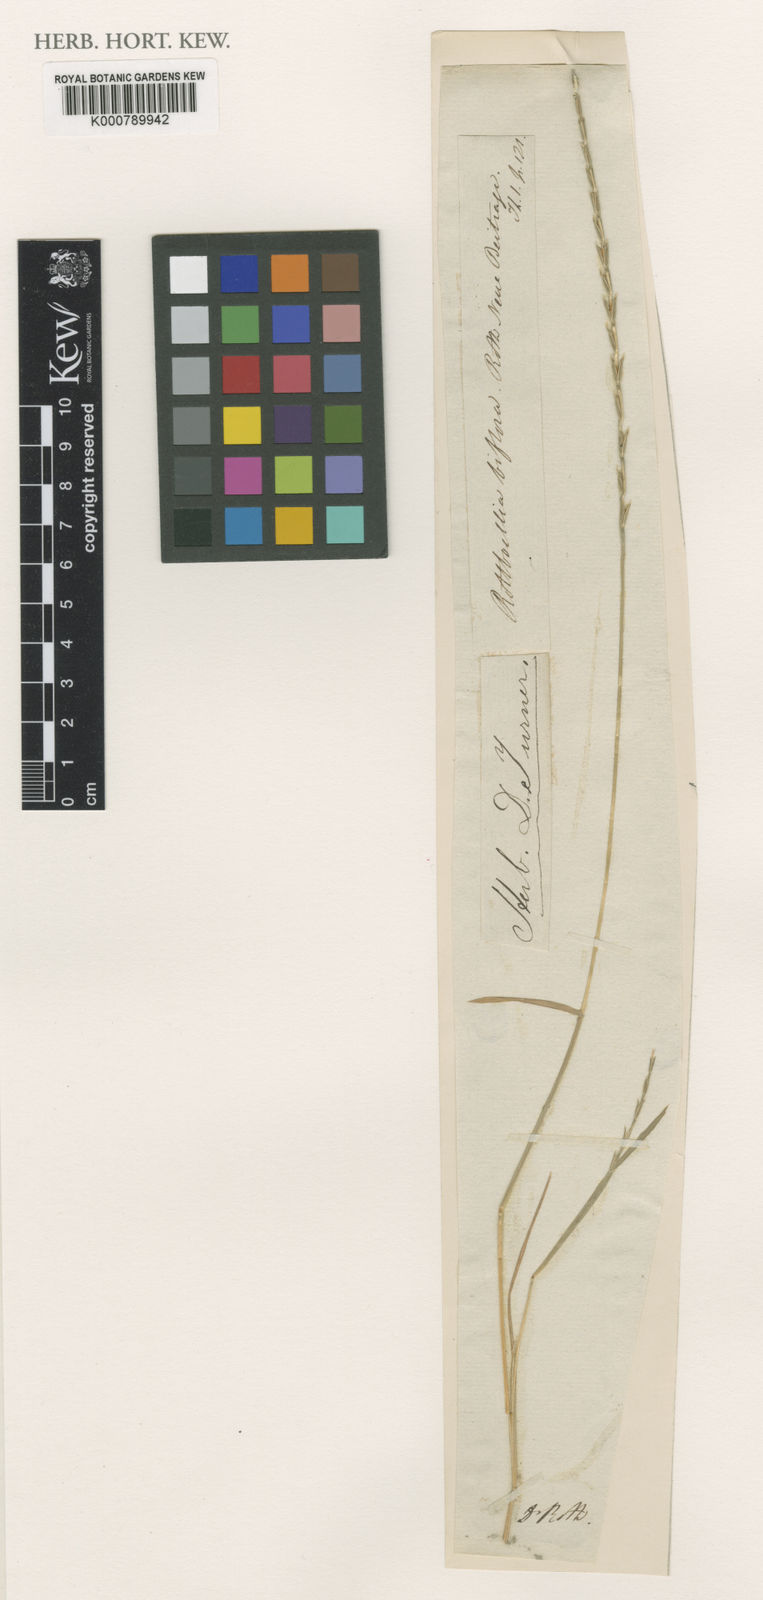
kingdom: Plantae
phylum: Tracheophyta
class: Liliopsida
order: Poales
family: Poaceae
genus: Pholiurus
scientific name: Pholiurus pannonicus
